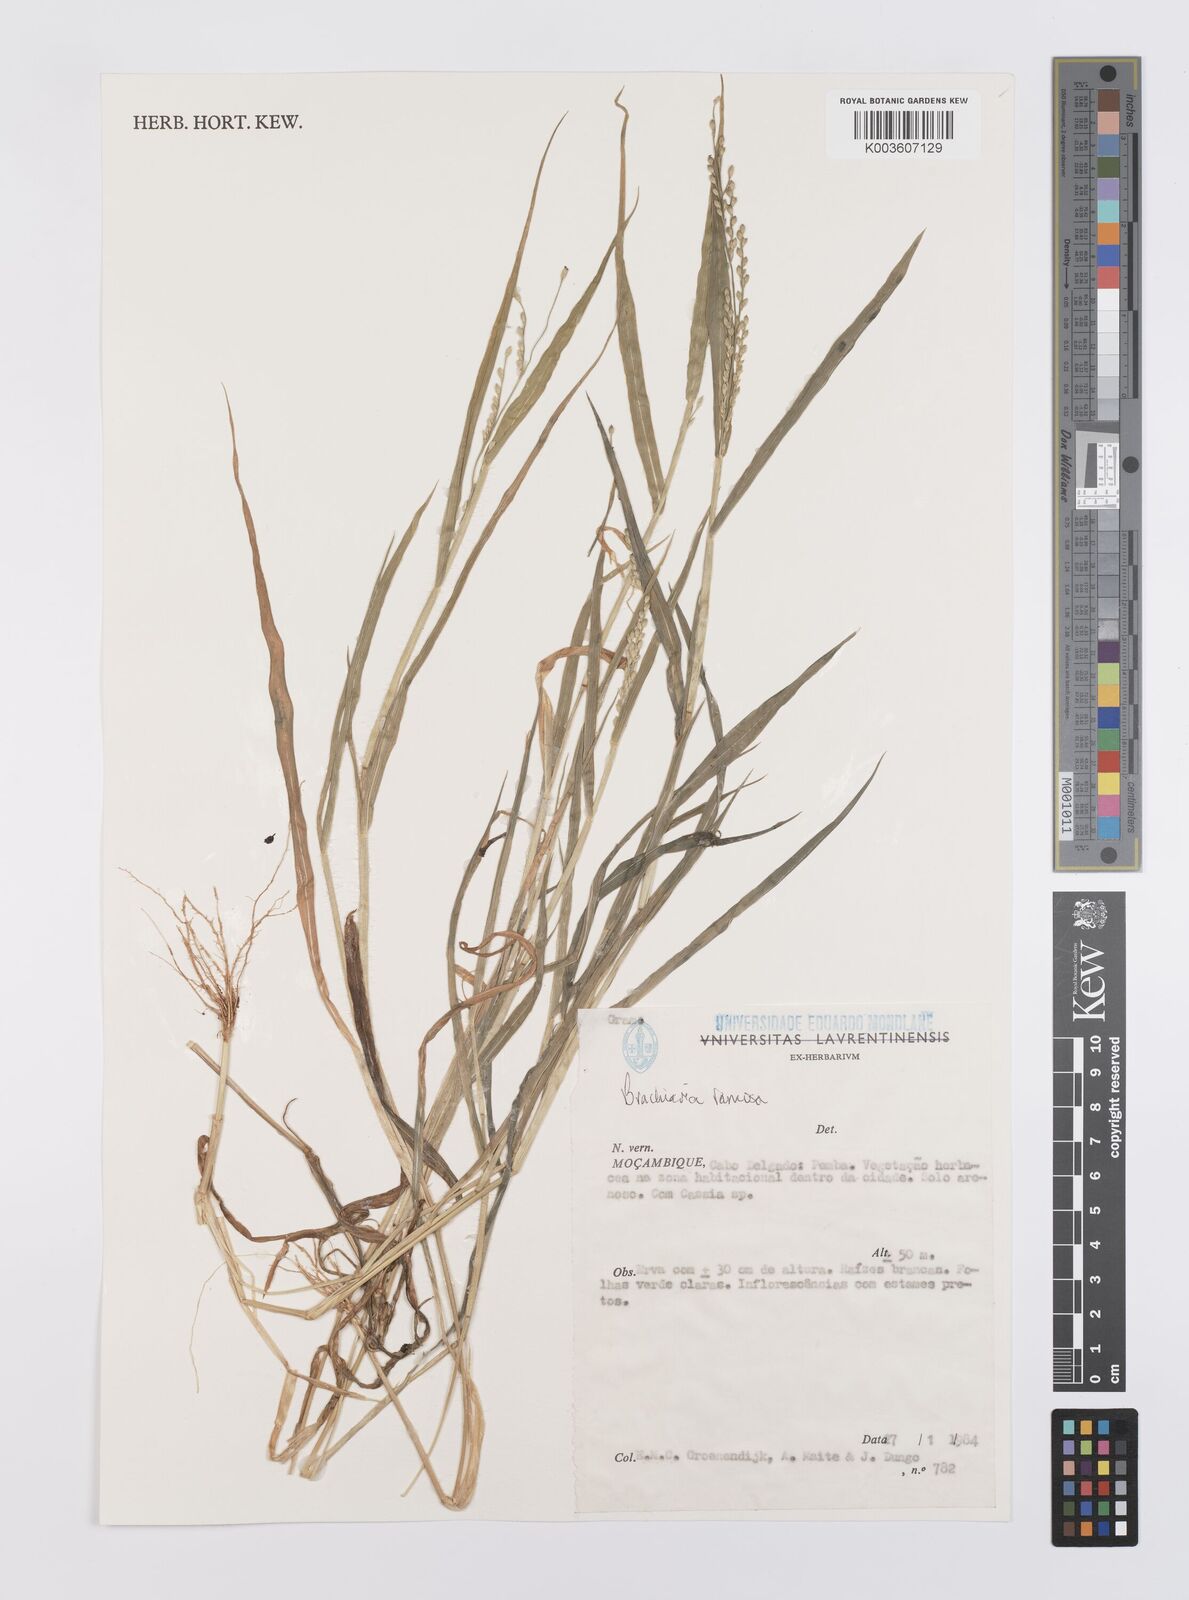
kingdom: Plantae
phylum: Tracheophyta
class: Liliopsida
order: Poales
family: Poaceae
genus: Urochloa
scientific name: Urochloa ramosa
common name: Browntop millet
